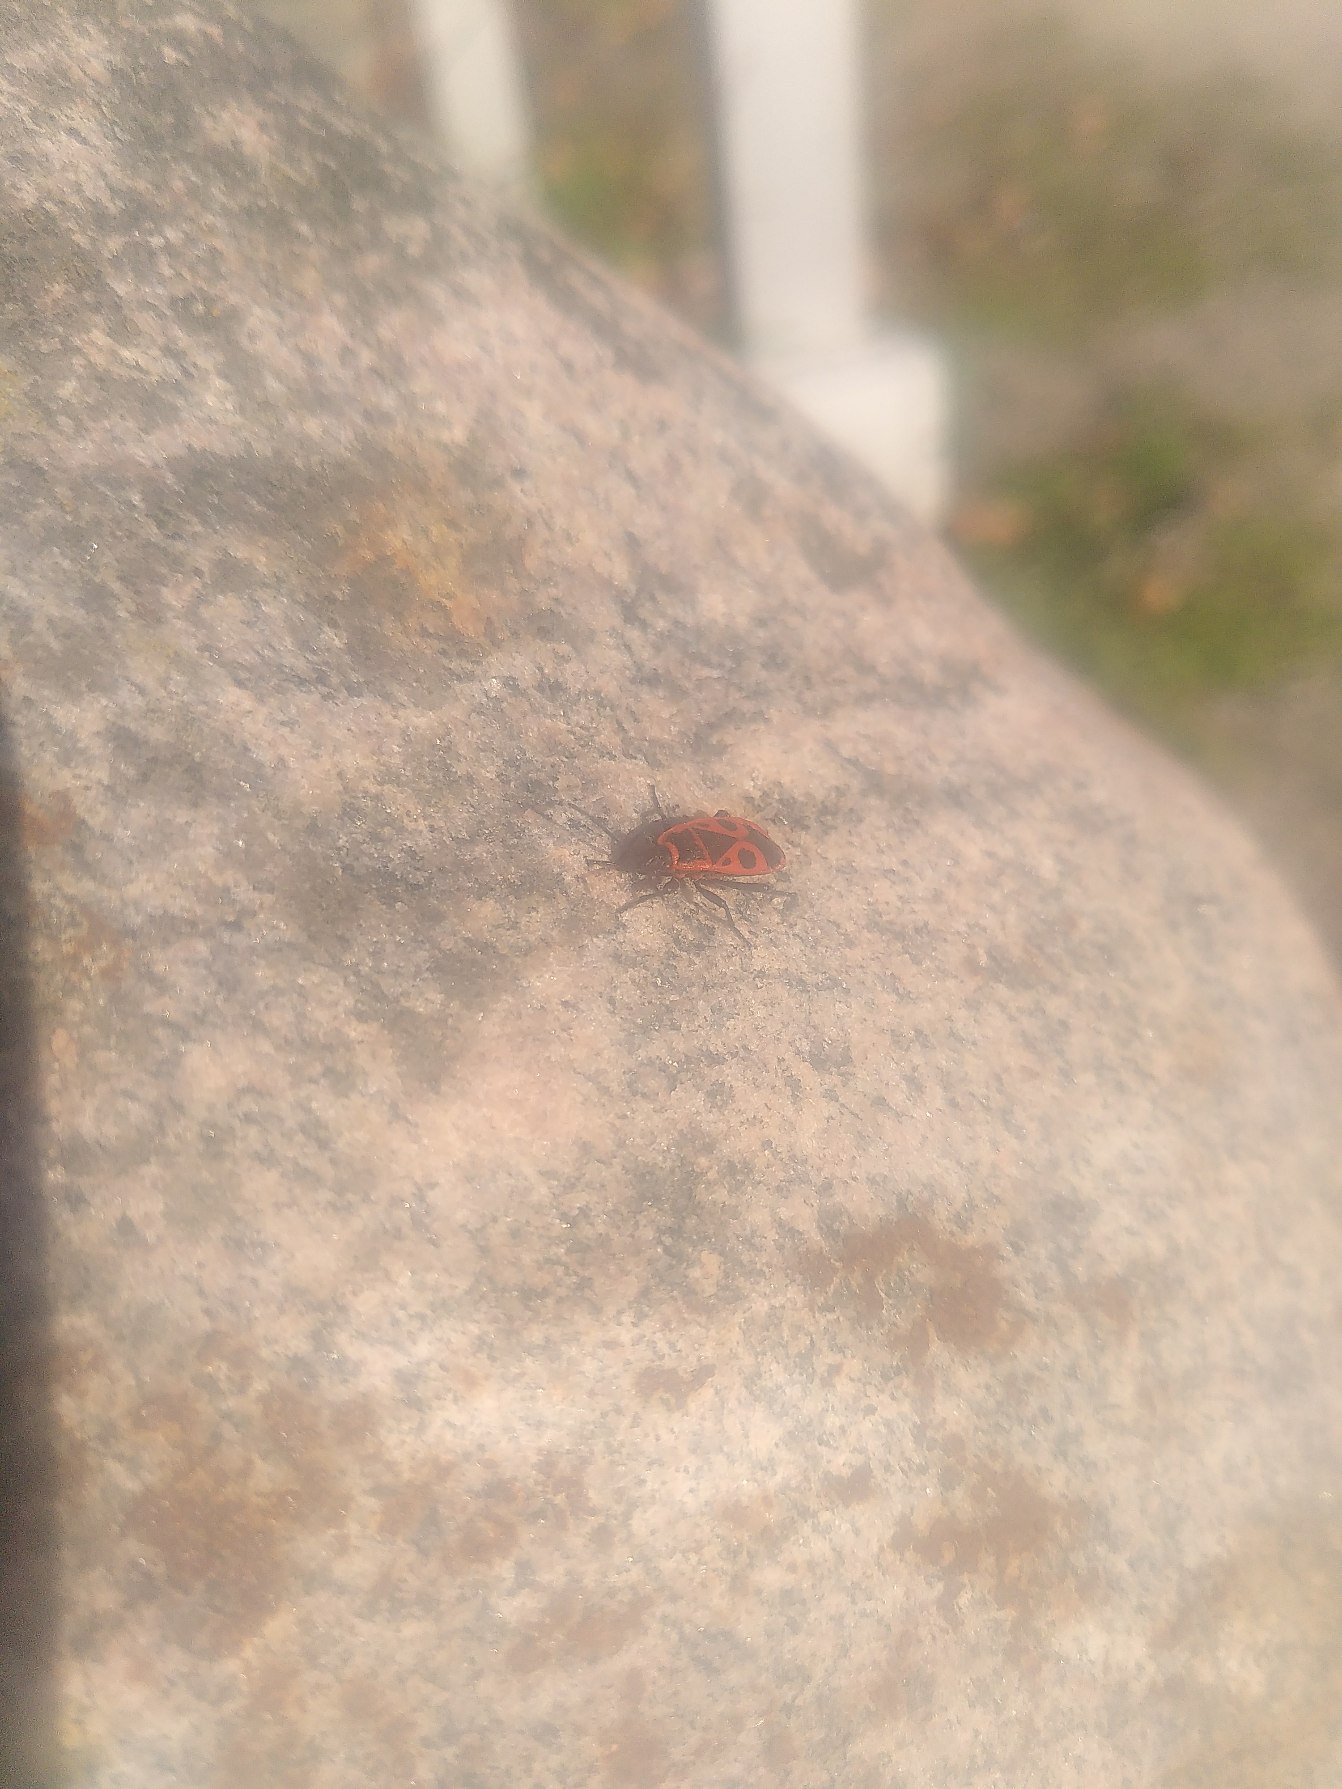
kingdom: Animalia
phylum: Arthropoda
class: Insecta
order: Hemiptera
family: Pyrrhocoridae
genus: Pyrrhocoris
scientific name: Pyrrhocoris apterus
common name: Ildtæge
